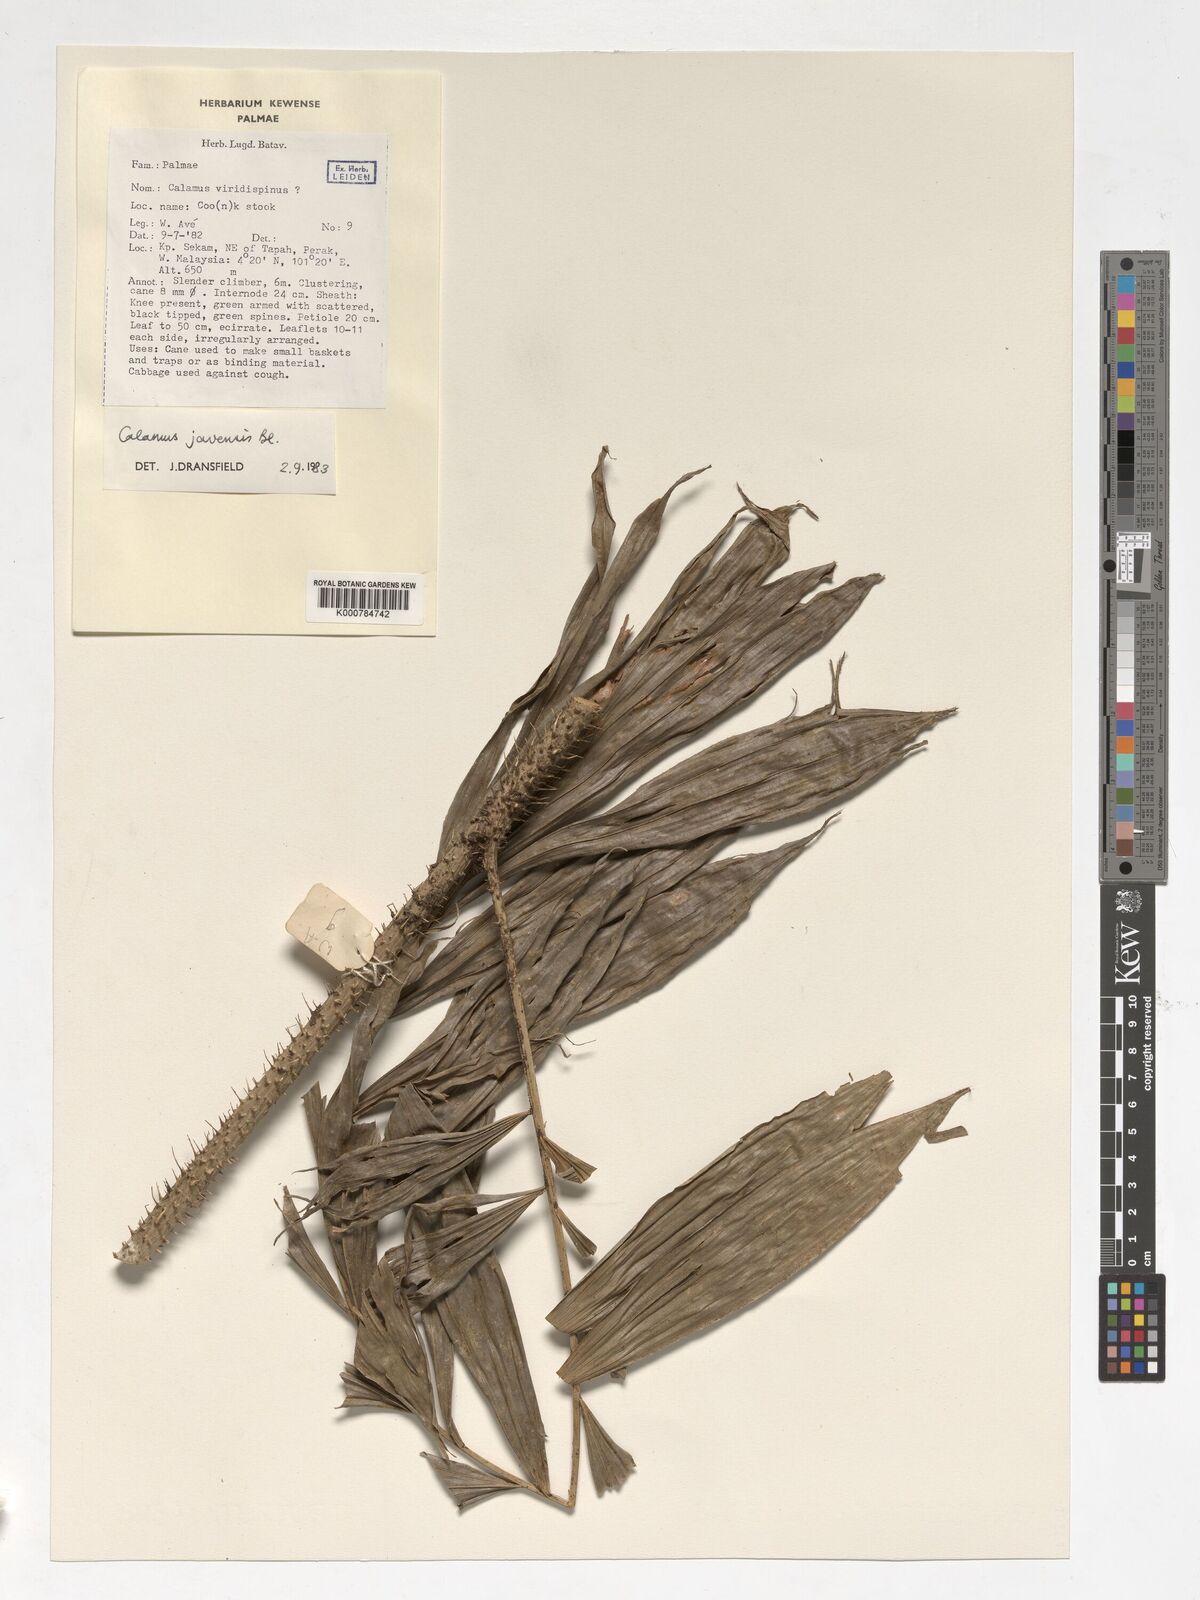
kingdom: Plantae
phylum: Tracheophyta
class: Liliopsida
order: Arecales
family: Arecaceae
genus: Calamus
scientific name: Calamus javensis
